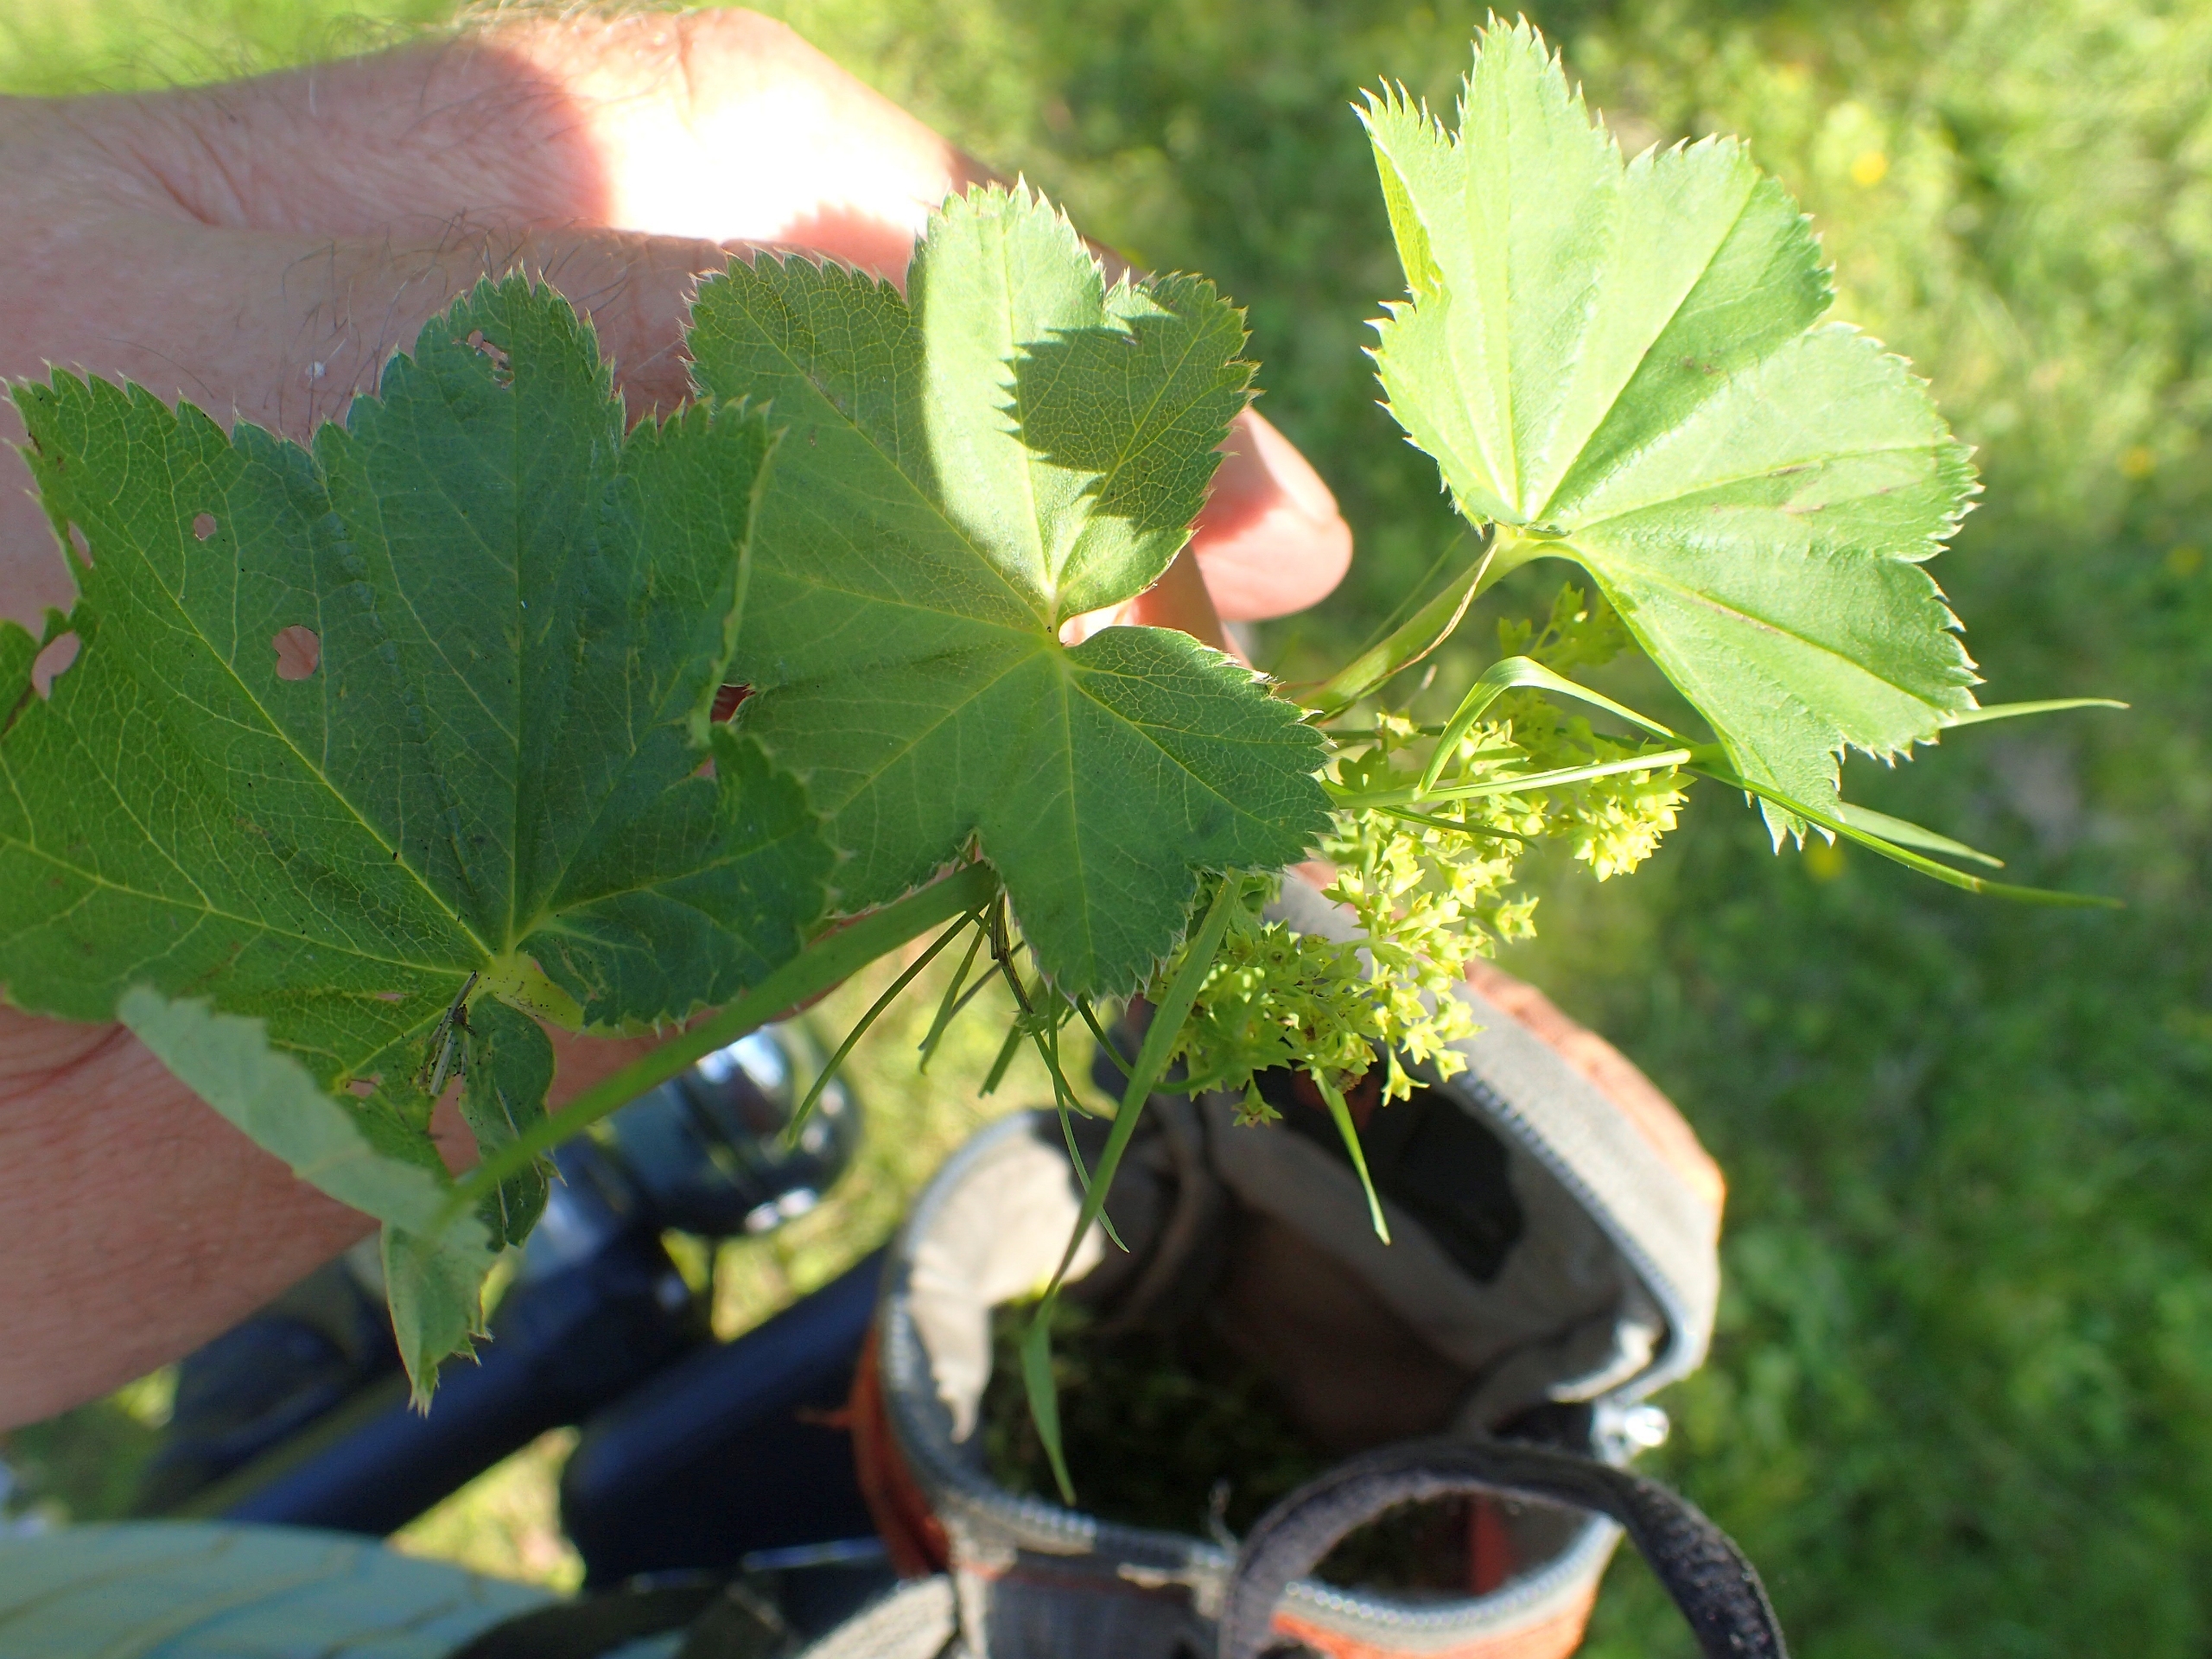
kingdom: Plantae
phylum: Tracheophyta
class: Magnoliopsida
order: Rosales
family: Rosaceae
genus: Alchemilla
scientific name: Alchemilla glabra
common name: Glat løvefod
